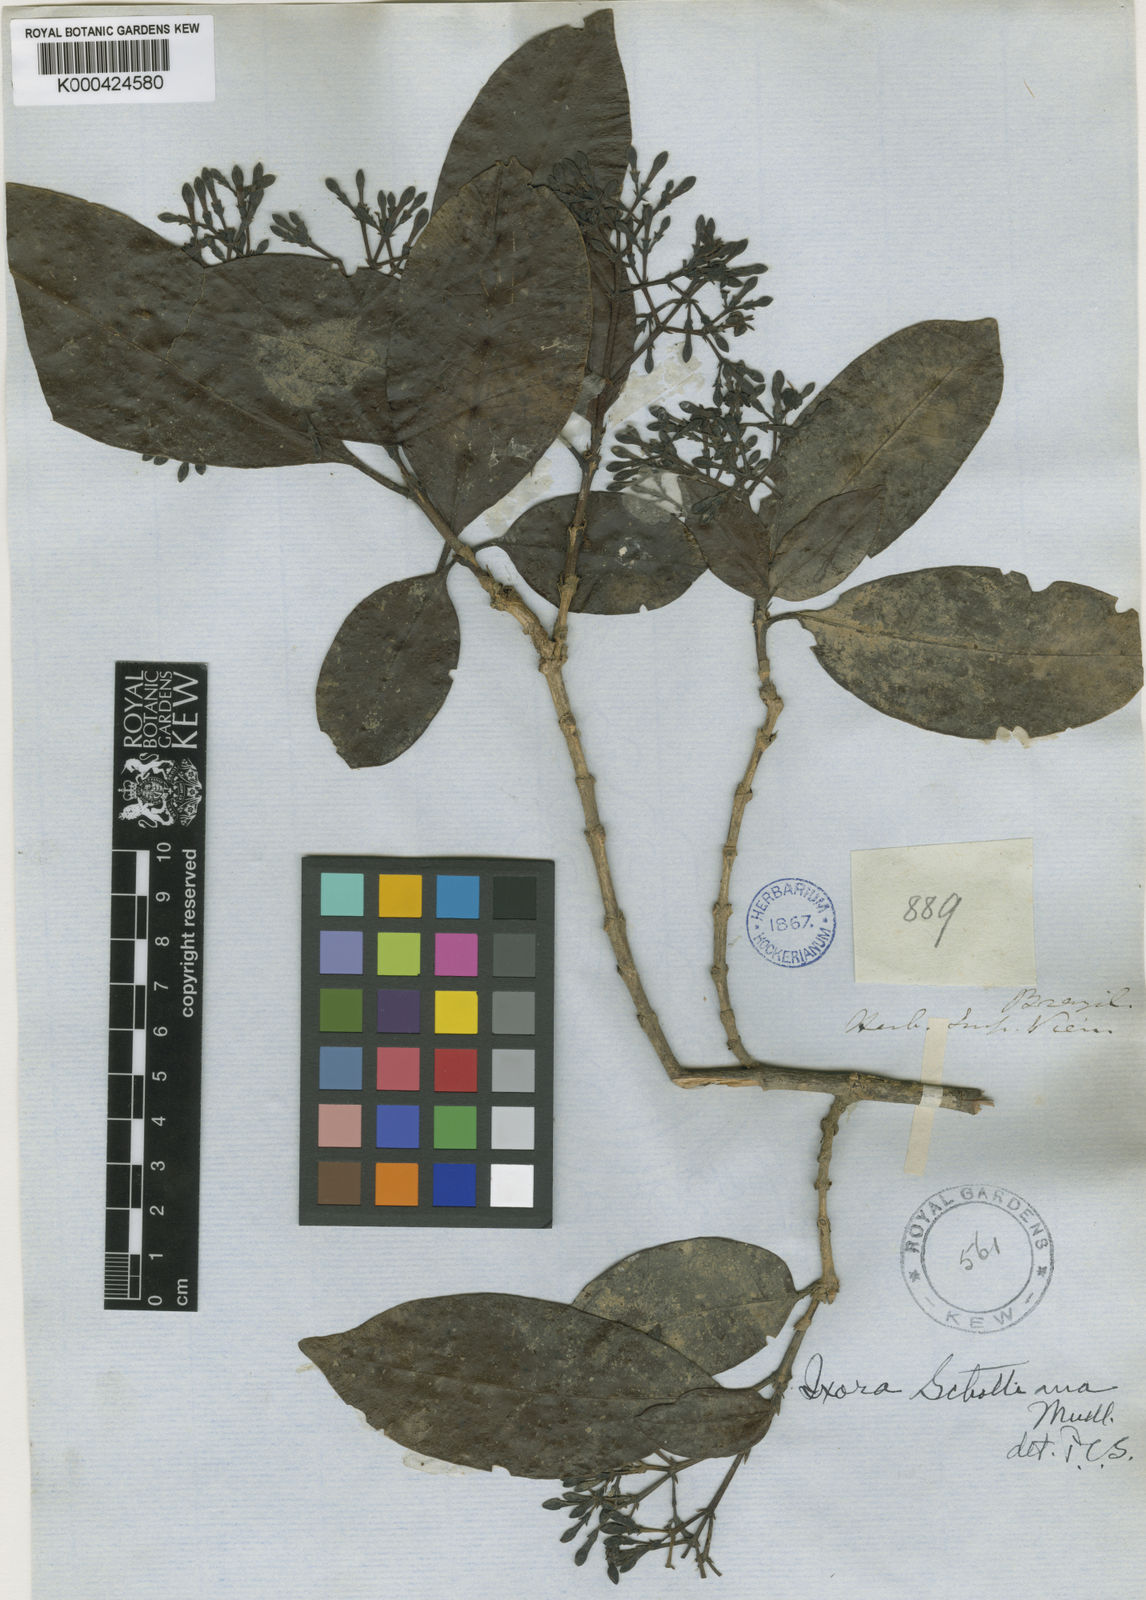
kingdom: Plantae
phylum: Tracheophyta
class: Magnoliopsida
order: Gentianales
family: Rubiaceae
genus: Ixora
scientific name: Ixora
